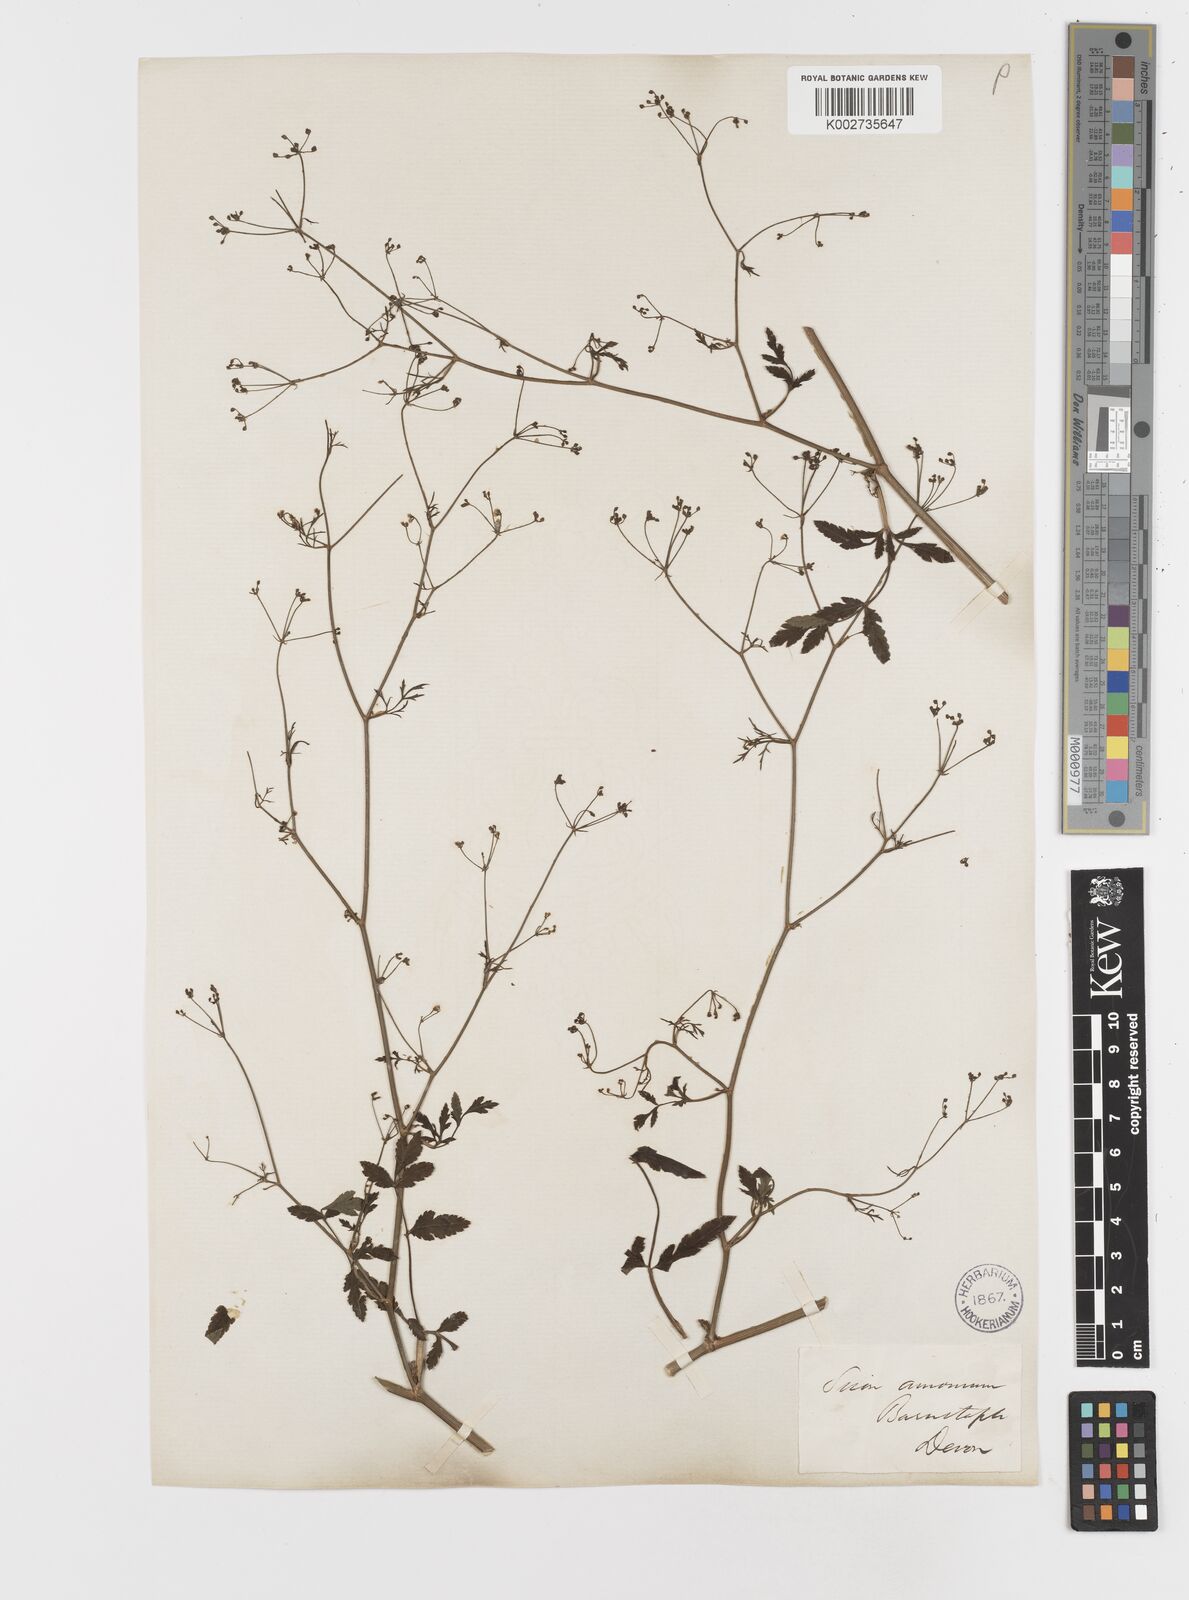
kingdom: Plantae
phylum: Tracheophyta
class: Magnoliopsida
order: Apiales
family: Apiaceae
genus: Sison
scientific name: Sison amomum
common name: Stone-parsley
